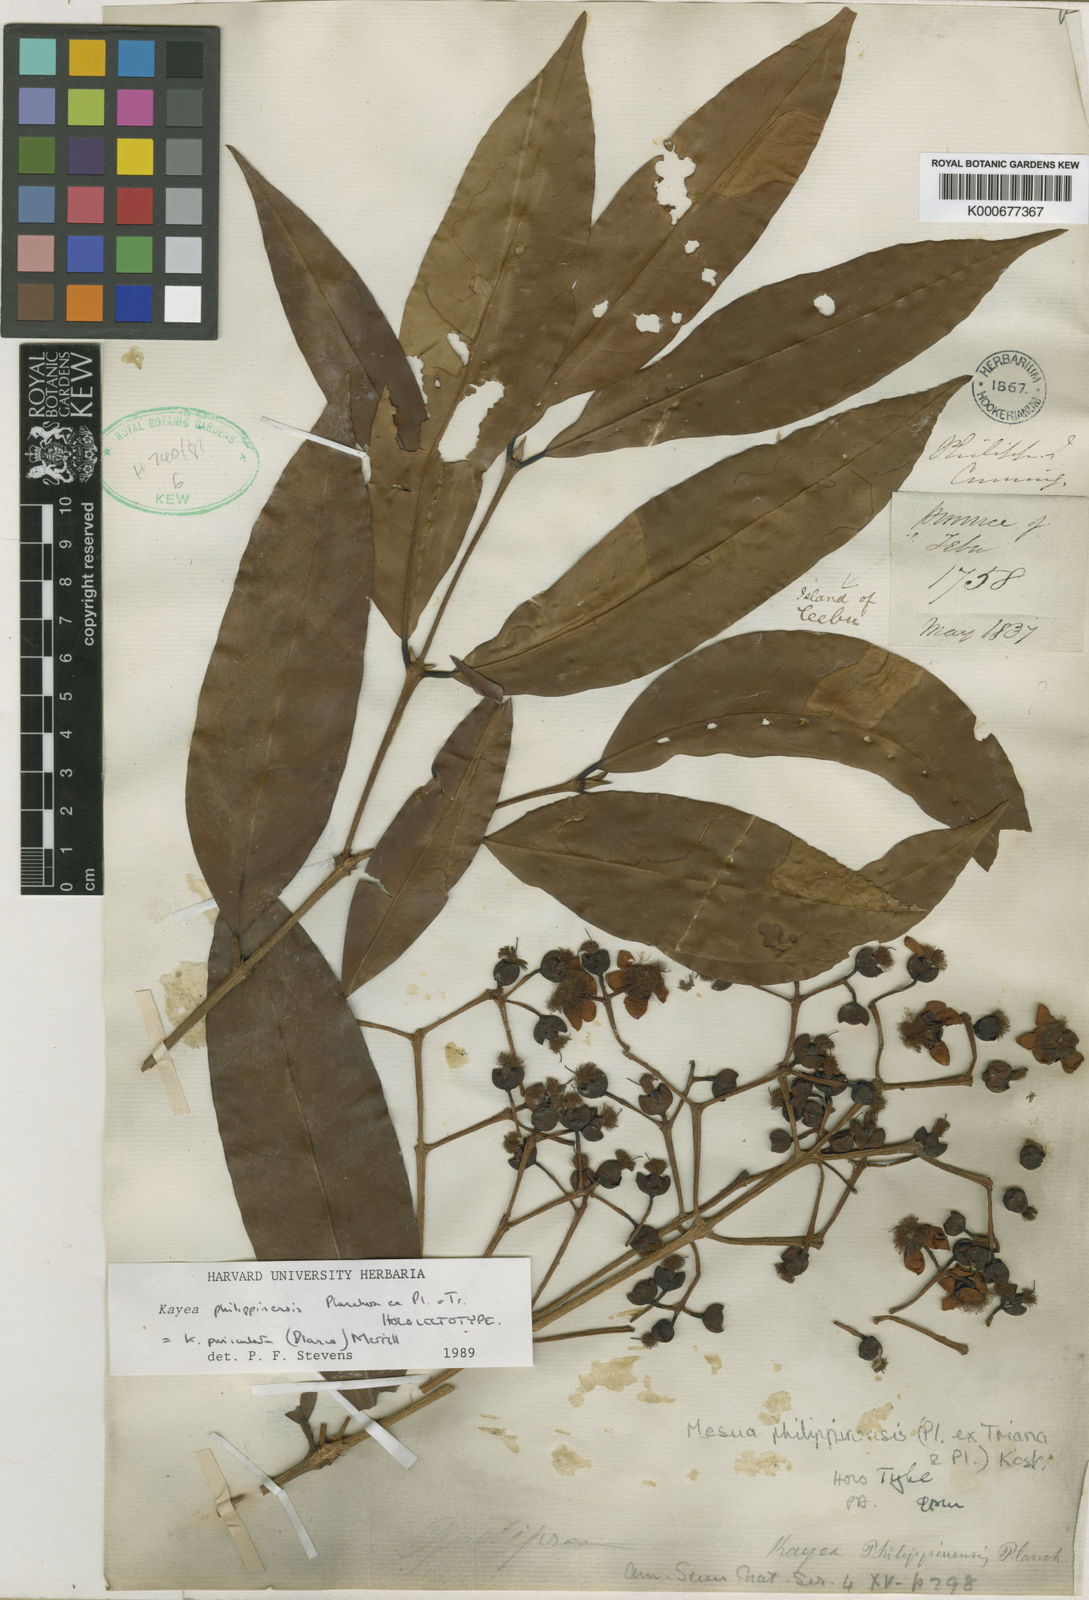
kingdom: Plantae
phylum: Tracheophyta
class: Magnoliopsida
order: Malpighiales
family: Calophyllaceae
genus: Kayea
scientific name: Kayea paniculata
